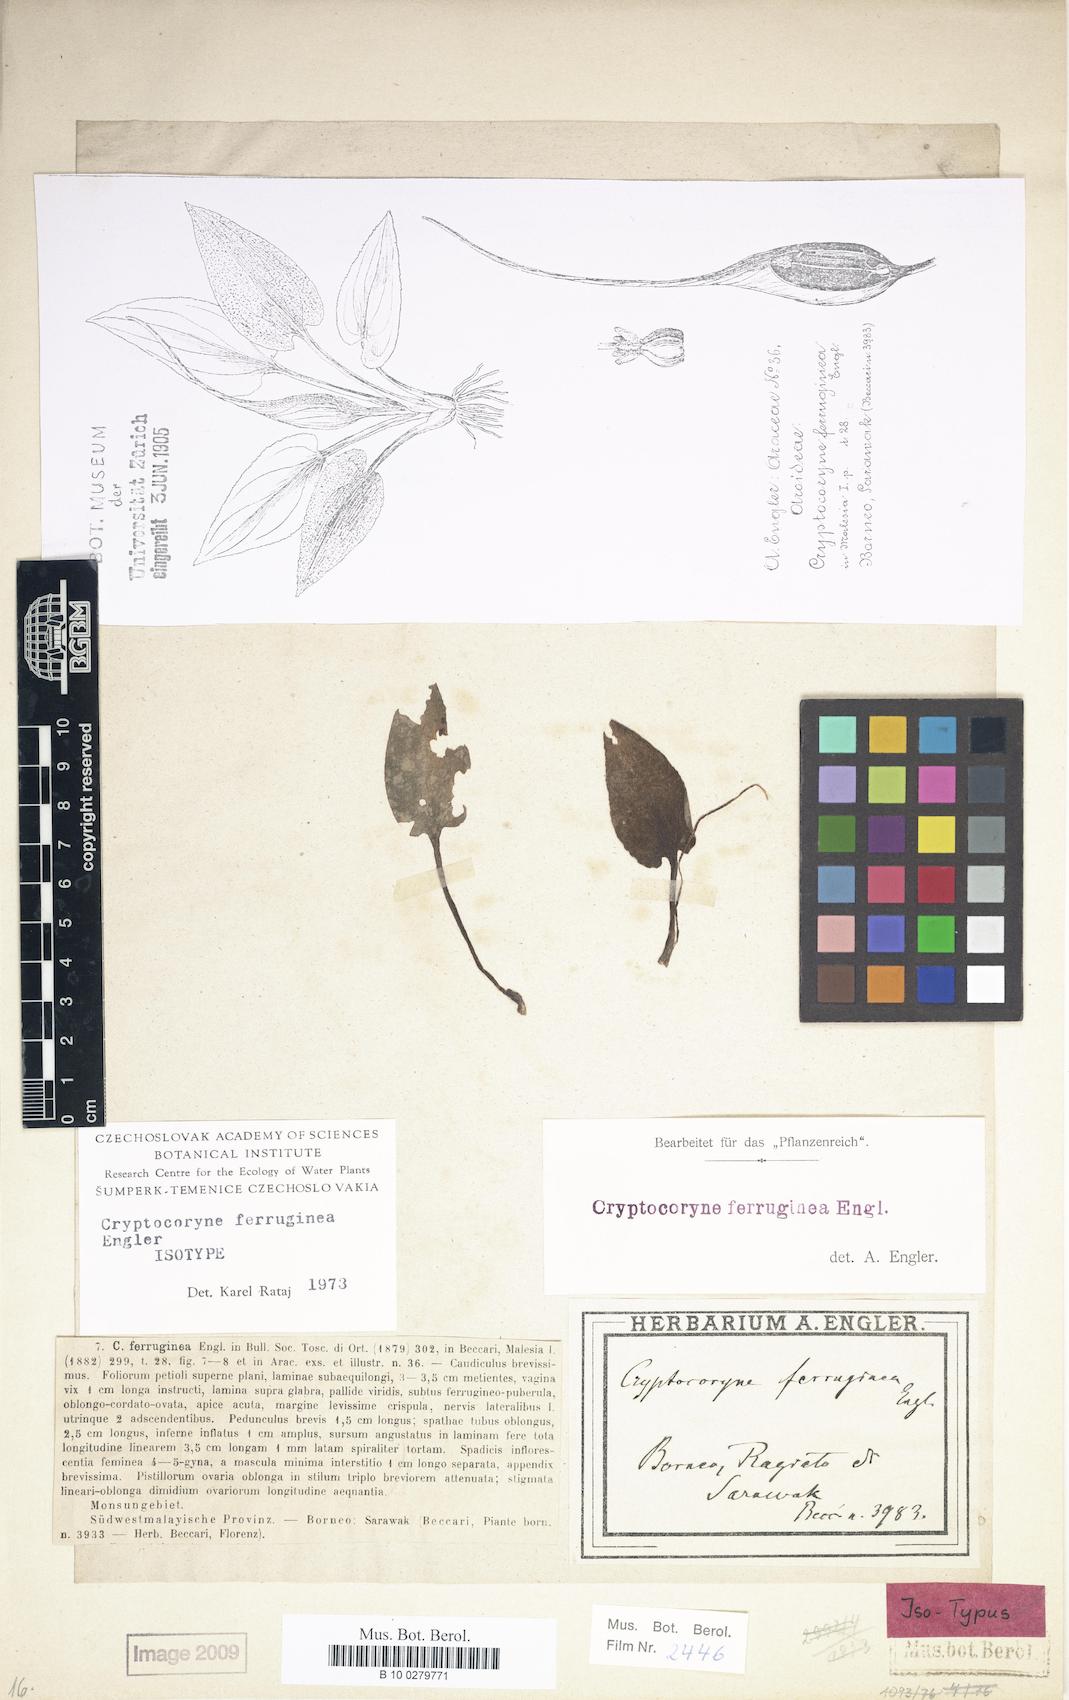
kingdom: Plantae
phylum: Tracheophyta
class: Liliopsida
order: Alismatales
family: Araceae
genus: Cryptocoryne
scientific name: Cryptocoryne ferruginea
